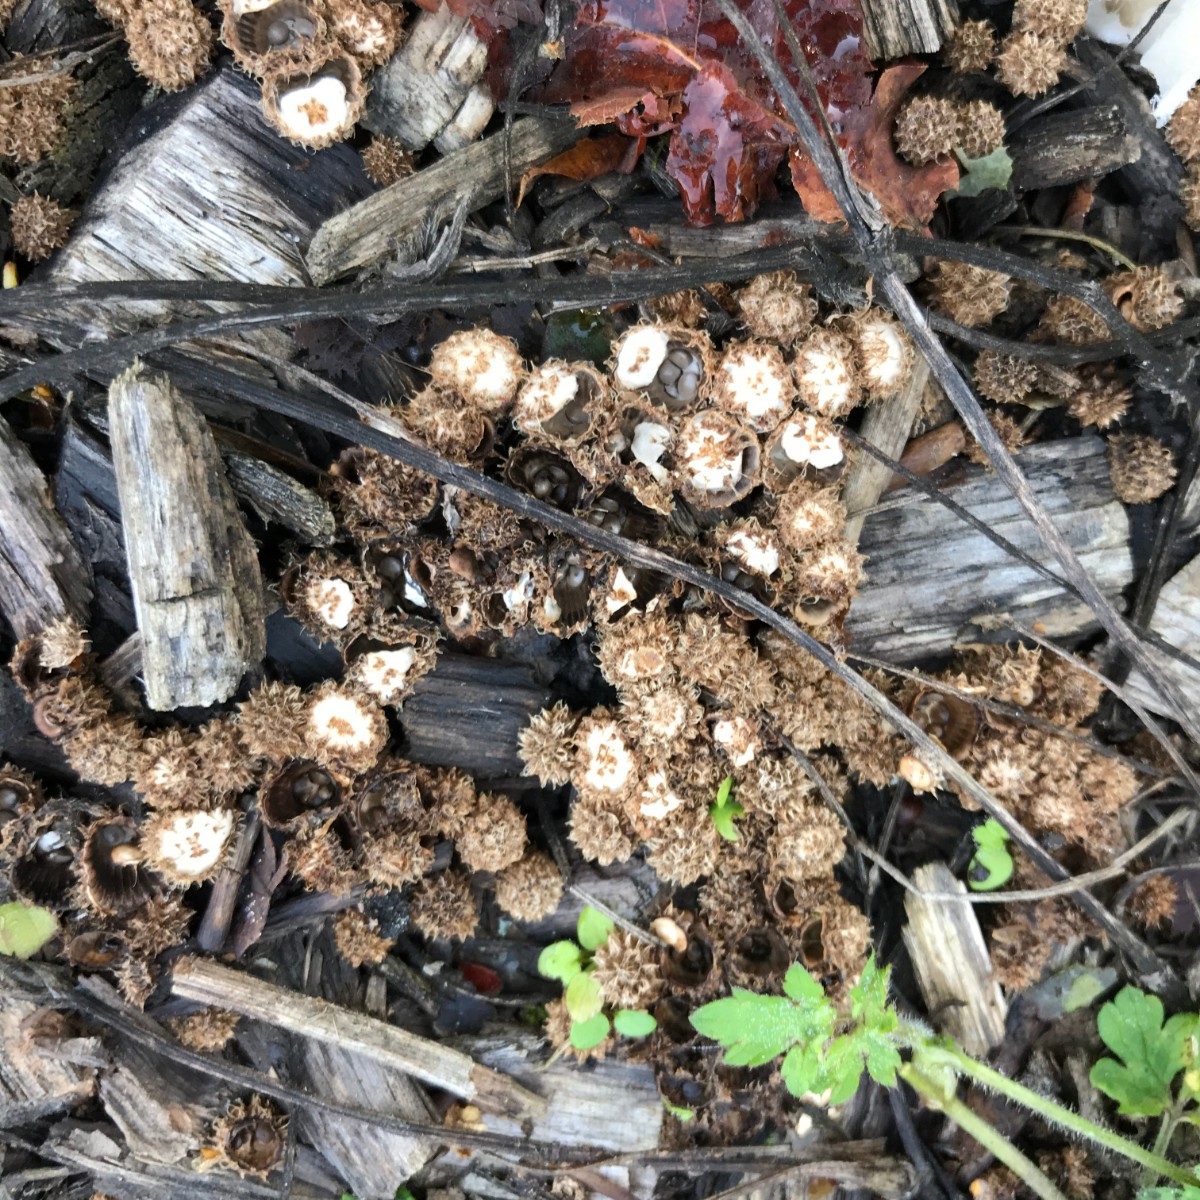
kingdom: Fungi
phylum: Basidiomycota
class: Agaricomycetes
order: Agaricales
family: Agaricaceae
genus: Cyathus
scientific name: Cyathus striatus
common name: stribet redesvamp
